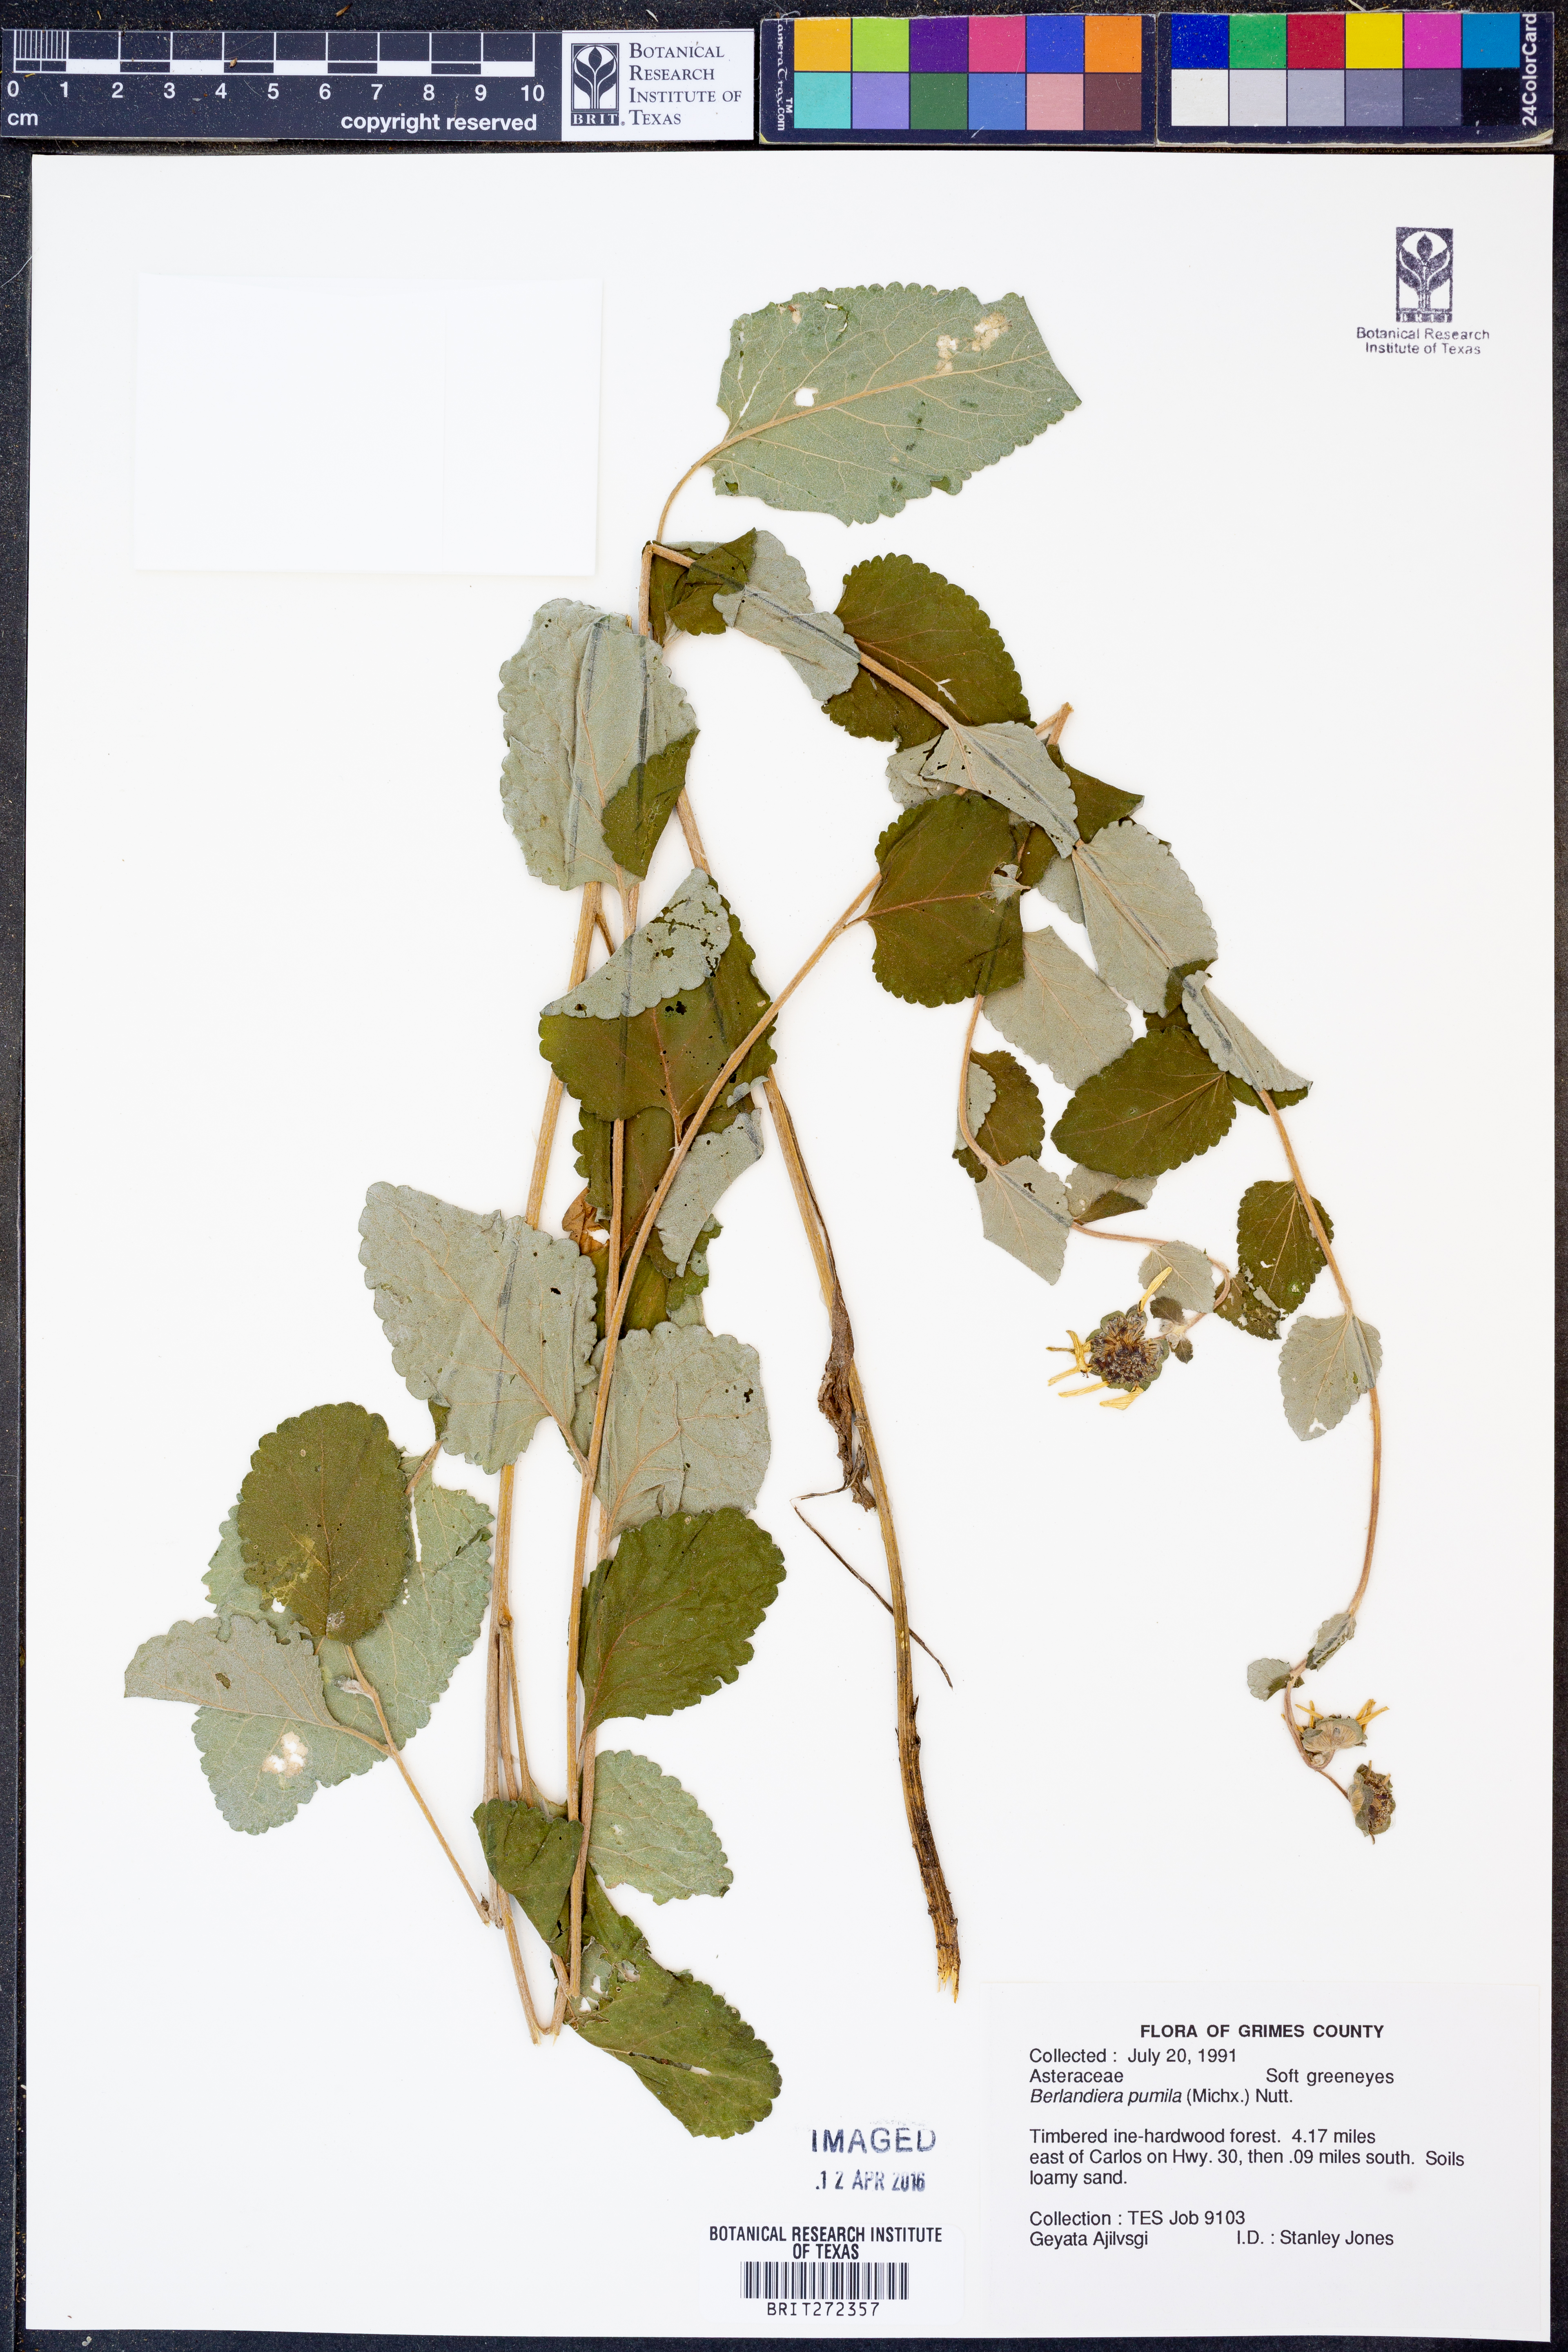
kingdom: Plantae
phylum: Tracheophyta
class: Magnoliopsida
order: Asterales
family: Asteraceae
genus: Berlandiera
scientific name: Berlandiera pumila
